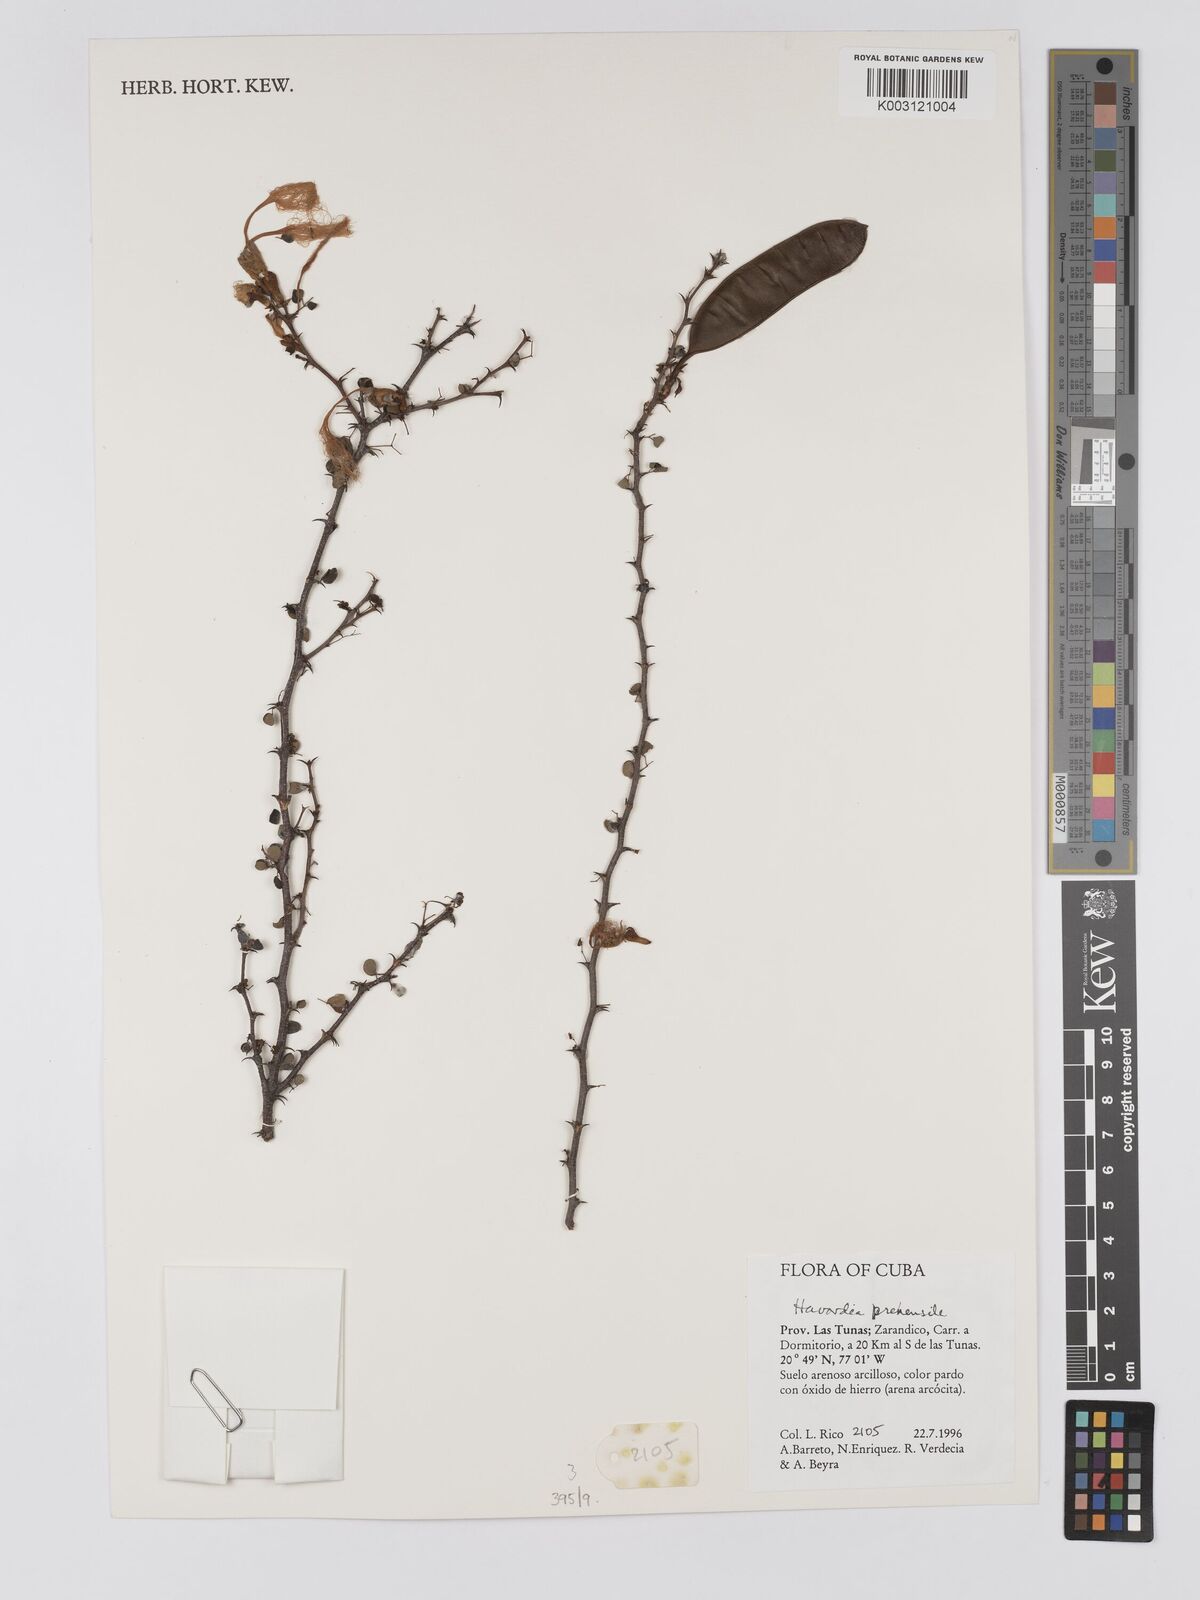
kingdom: Plantae
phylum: Tracheophyta
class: Magnoliopsida
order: Fabales
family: Fabaceae
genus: Sphinga
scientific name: Sphinga prehensilis
